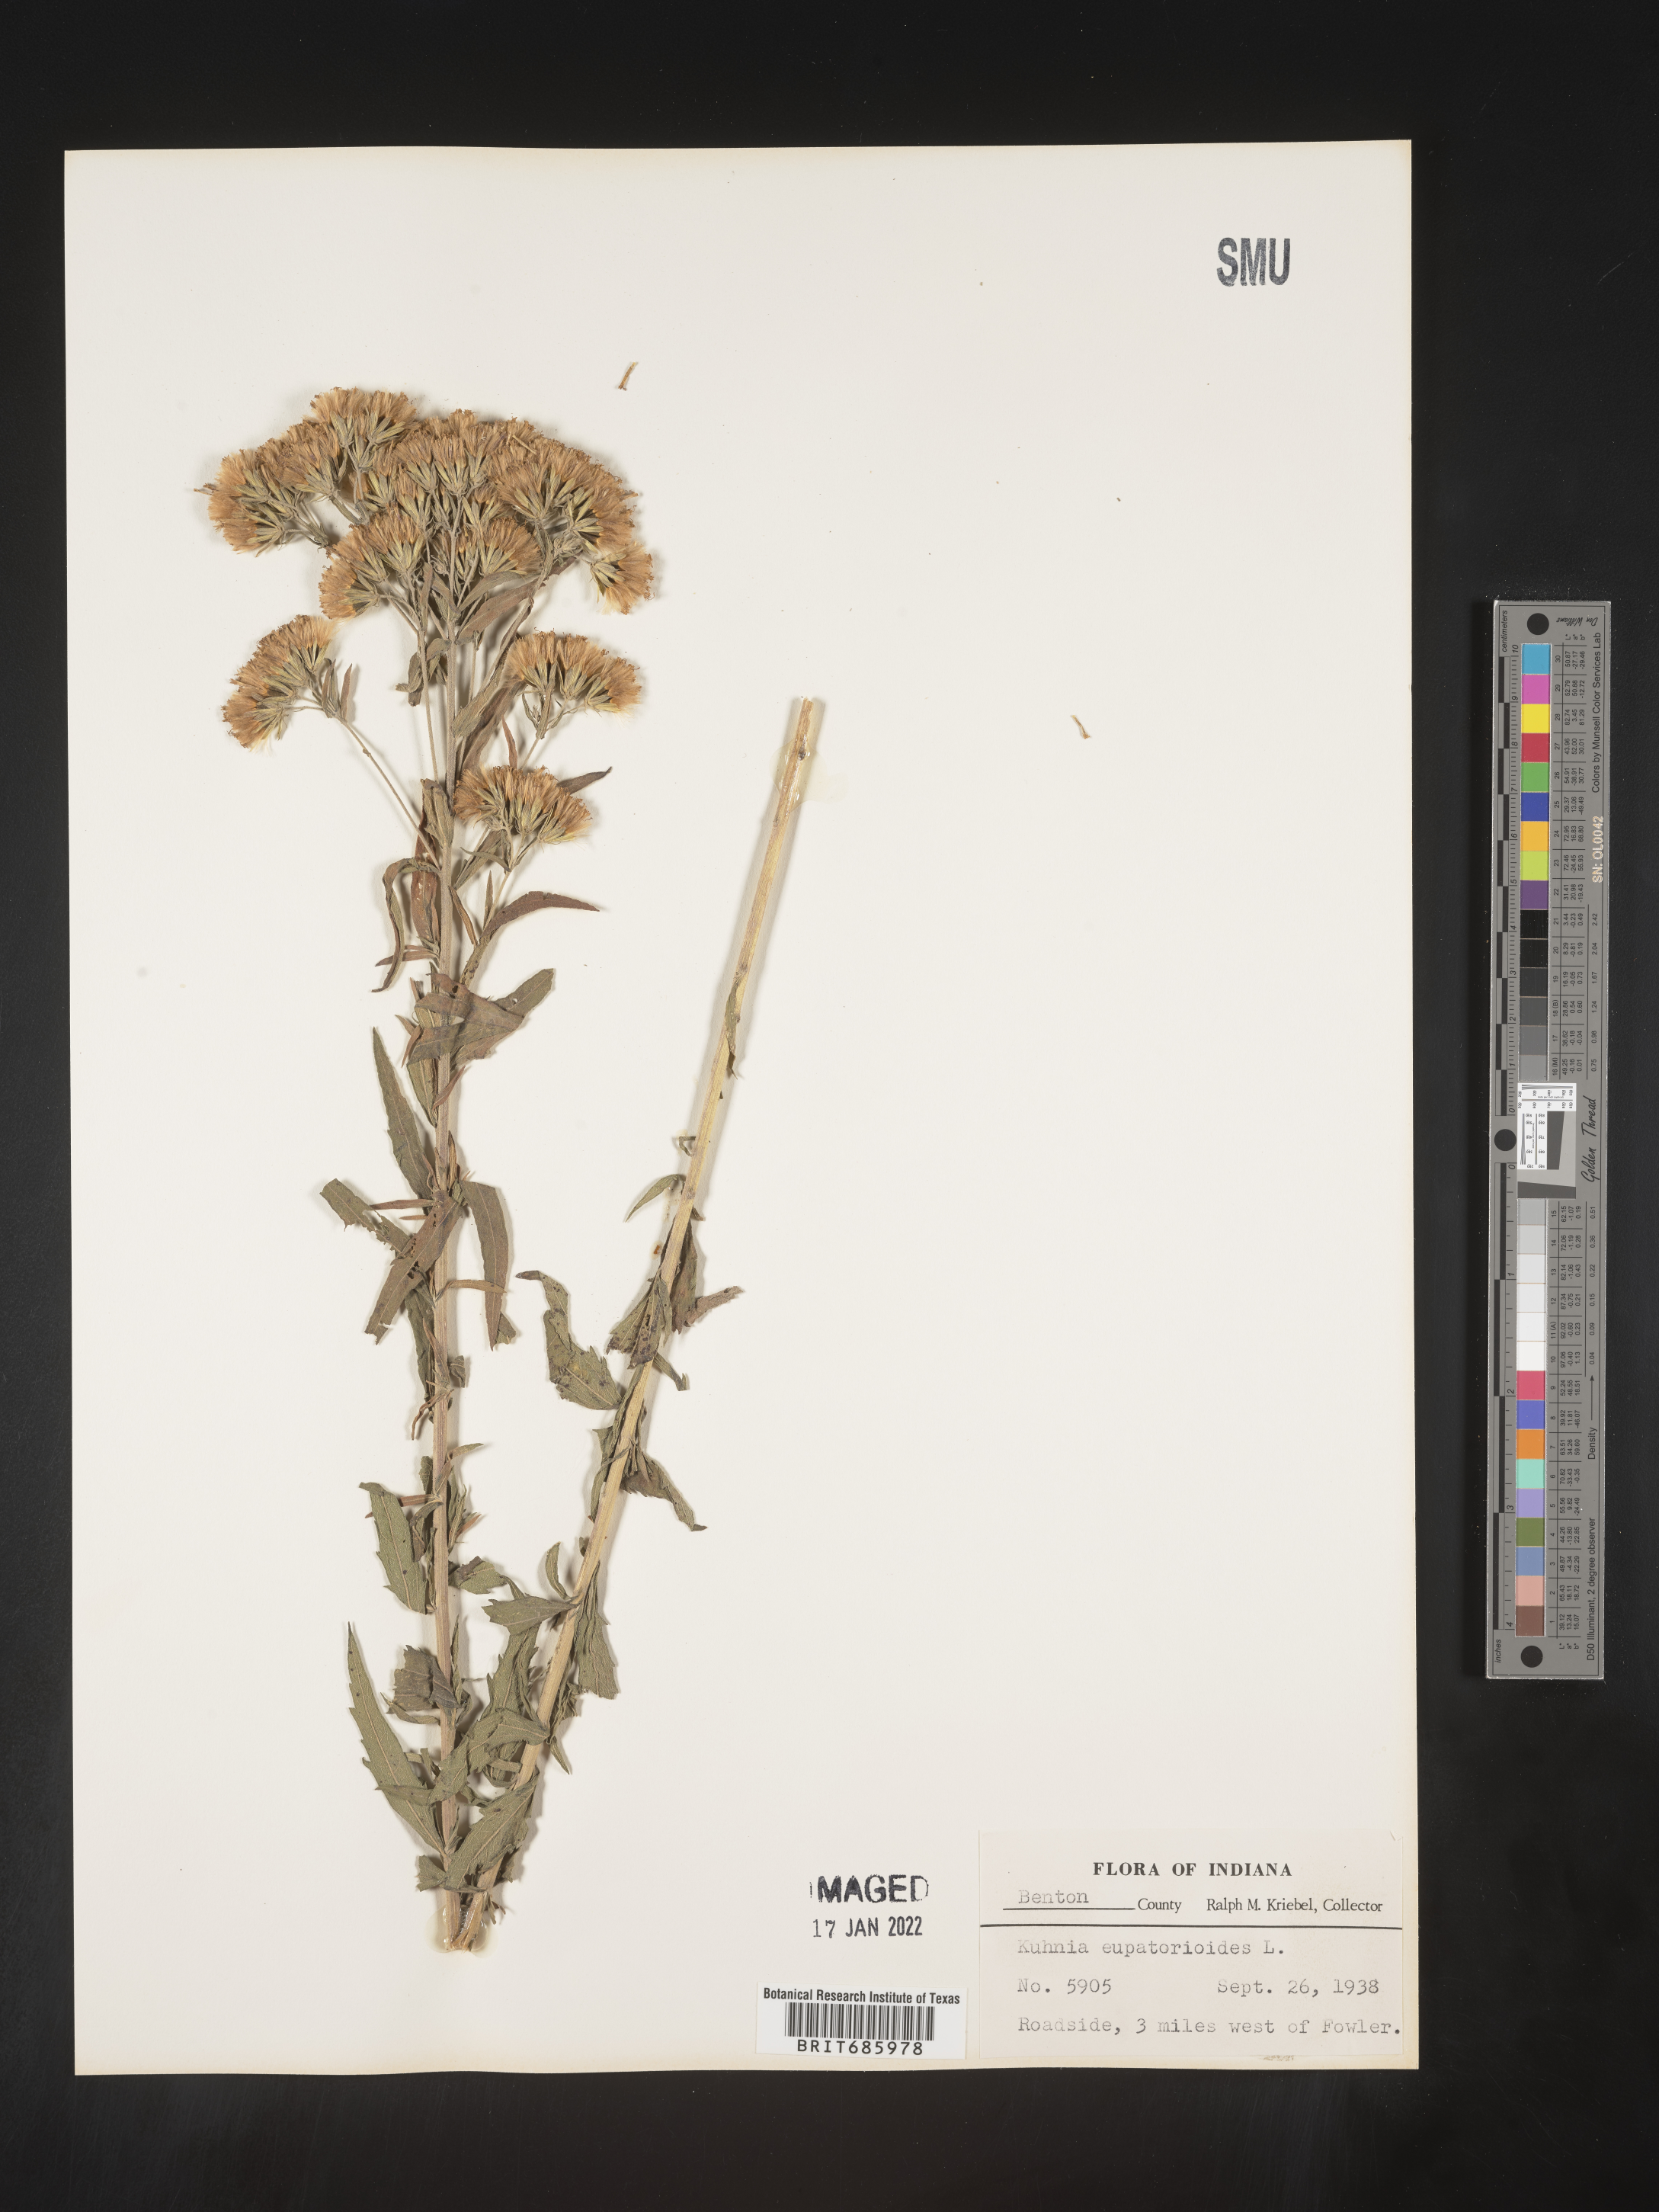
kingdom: Plantae
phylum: Tracheophyta
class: Magnoliopsida
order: Asterales
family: Asteraceae
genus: Brickellia
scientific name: Brickellia eupatorioides
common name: False boneset
